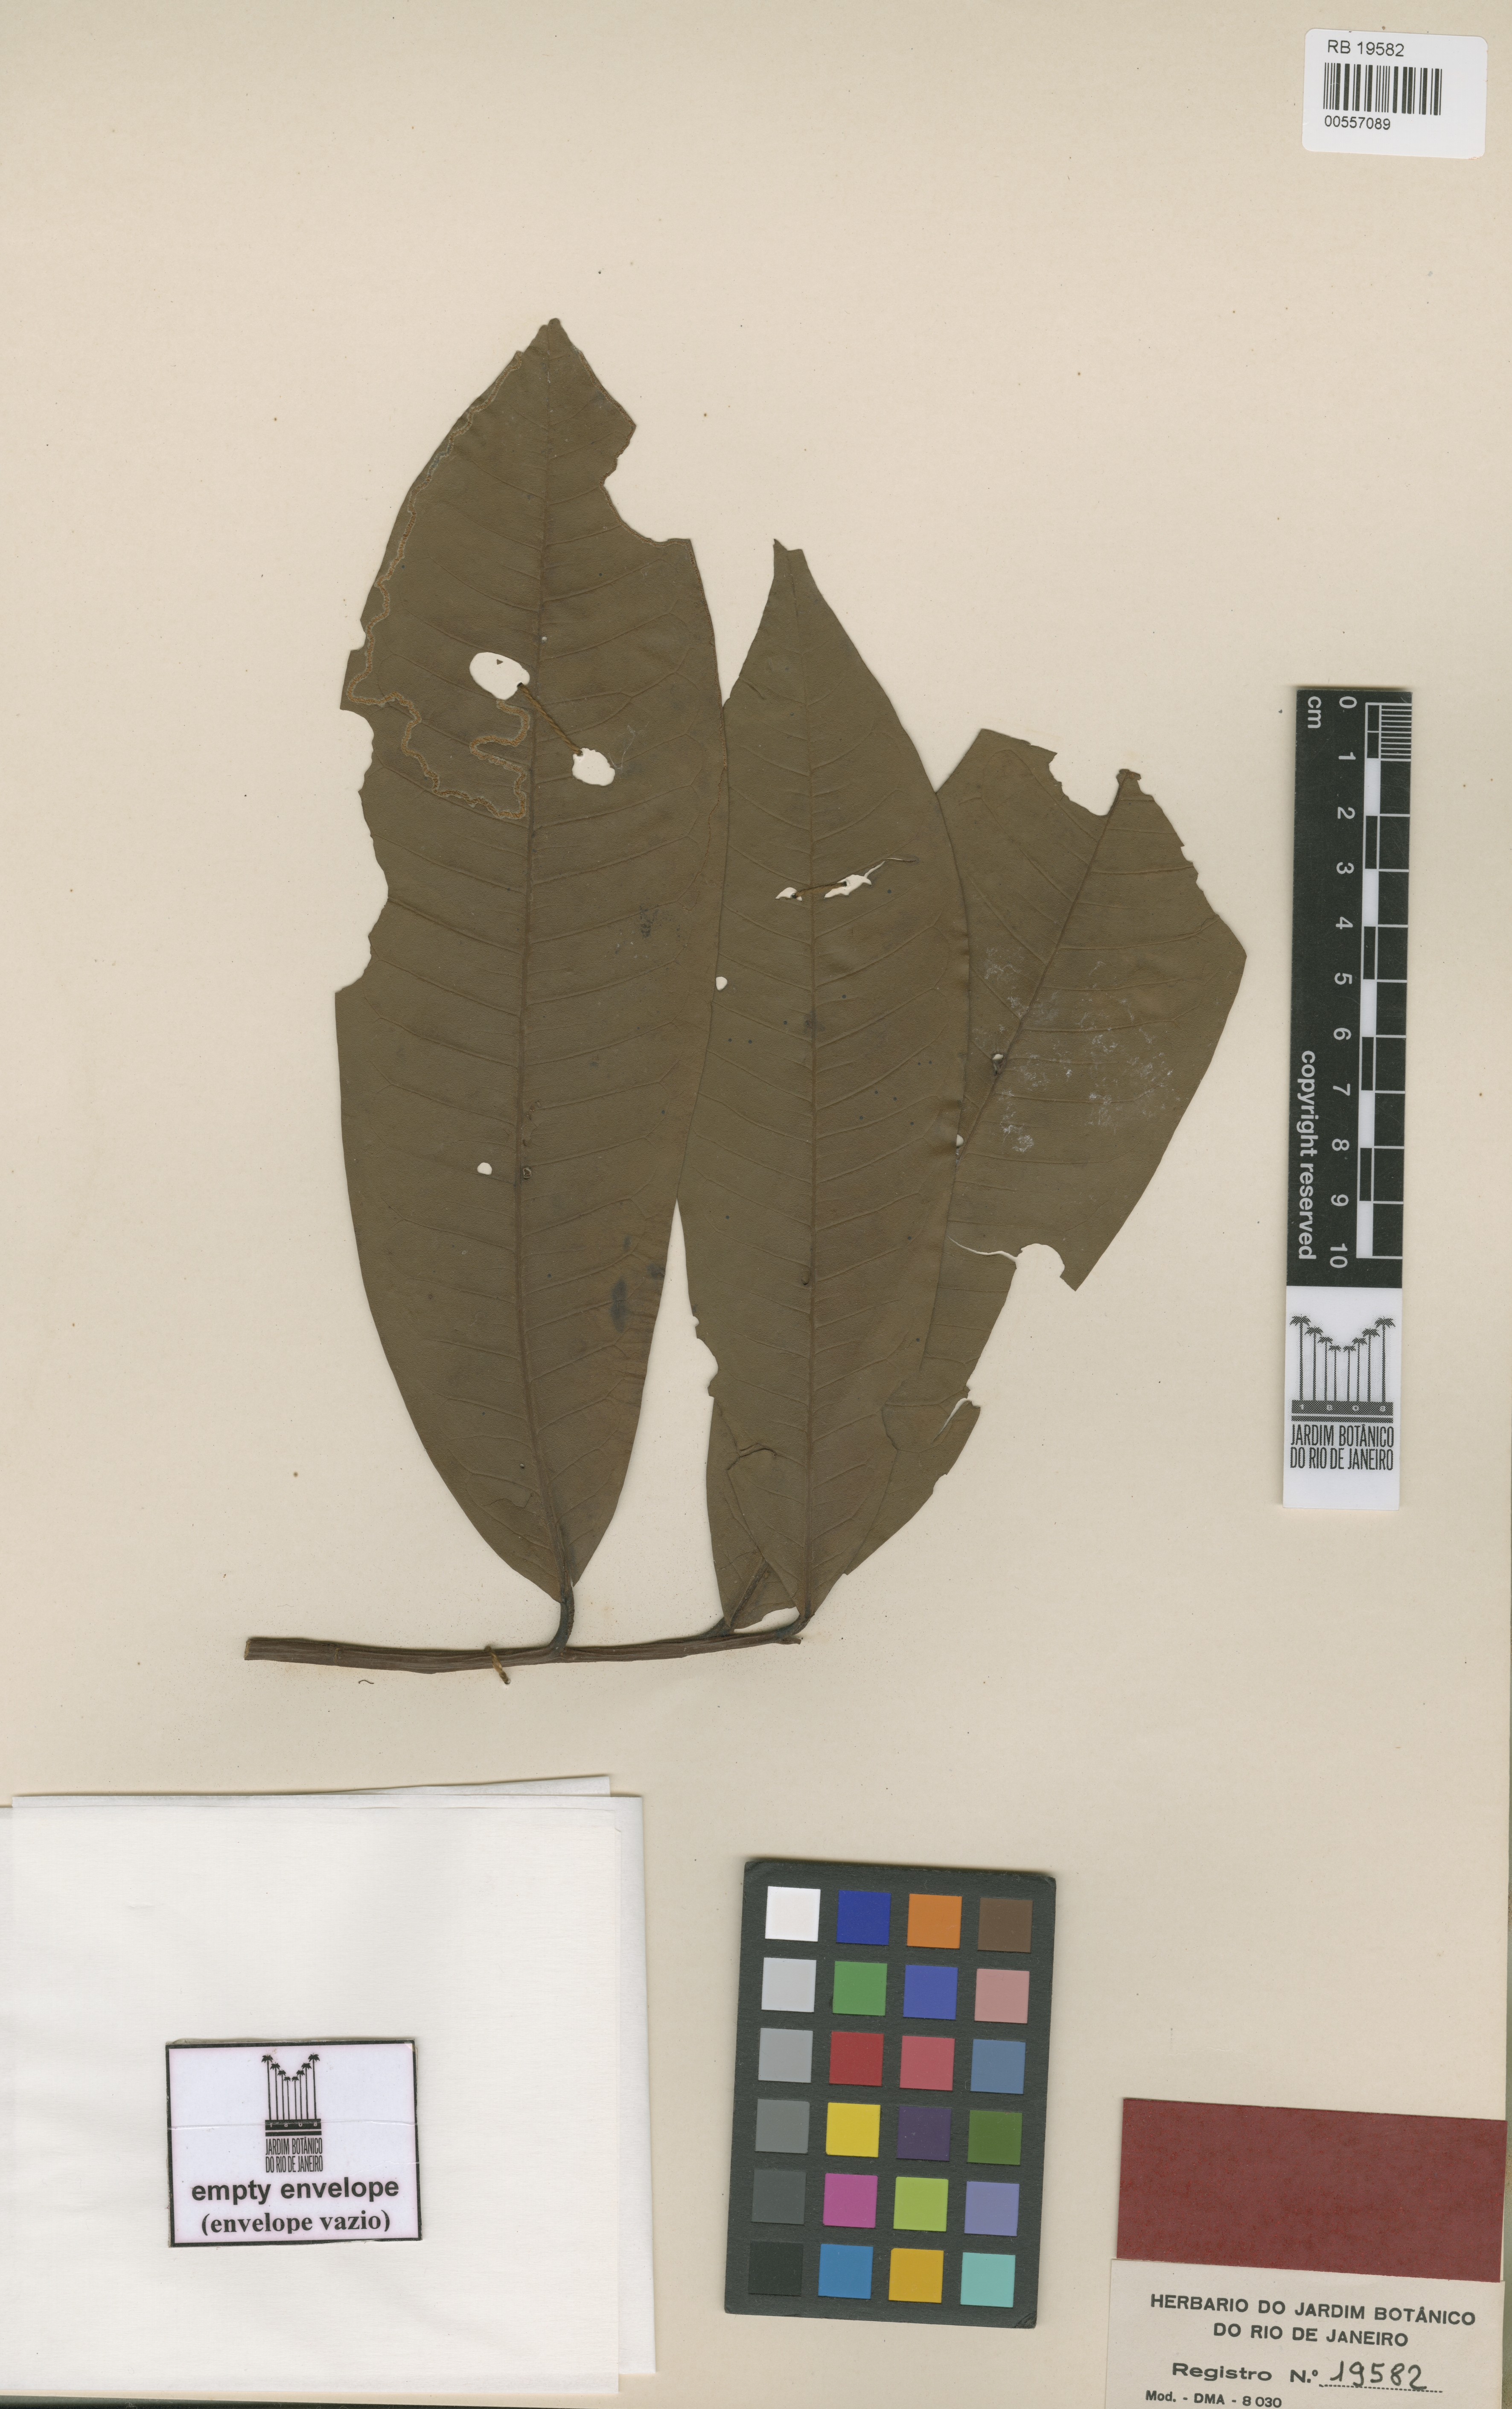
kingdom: Plantae
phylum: Tracheophyta
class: Magnoliopsida
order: Magnoliales
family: Myristicaceae
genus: Iryanthera
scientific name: Iryanthera paraensis
